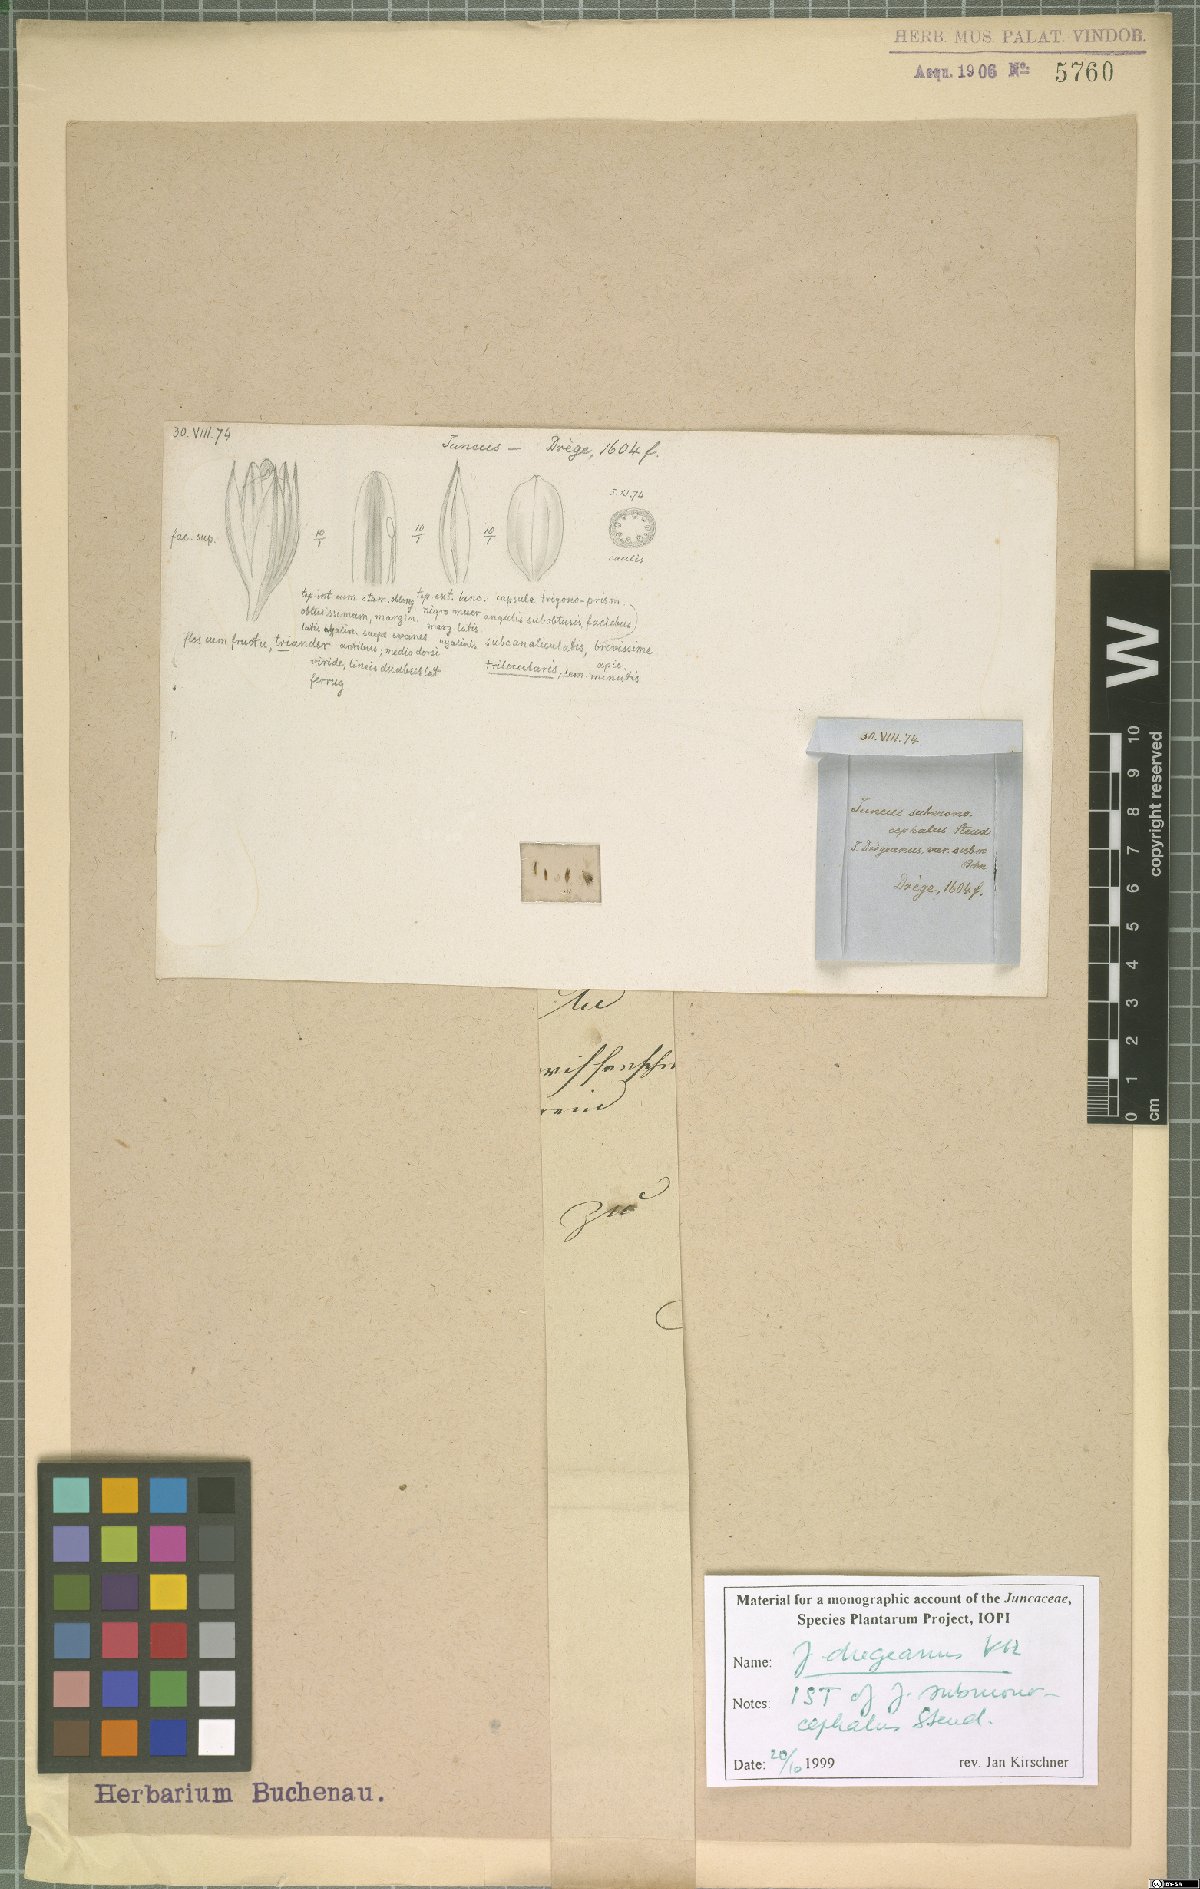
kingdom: Plantae
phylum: Tracheophyta
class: Liliopsida
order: Poales
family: Juncaceae
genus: Juncus
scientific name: Juncus dregeanus
